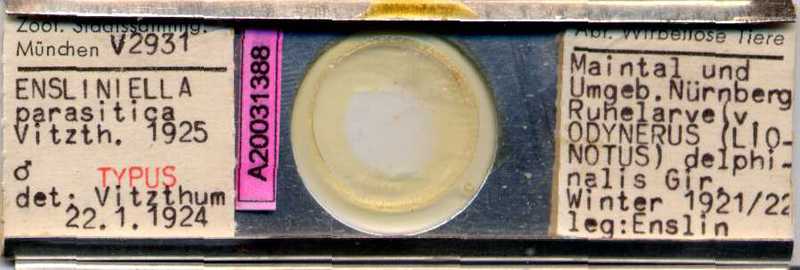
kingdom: Animalia
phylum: Arthropoda
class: Arachnida
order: Sarcoptiformes
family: Winterschmidtiidae
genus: Ensliniella
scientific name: Ensliniella parasitica
